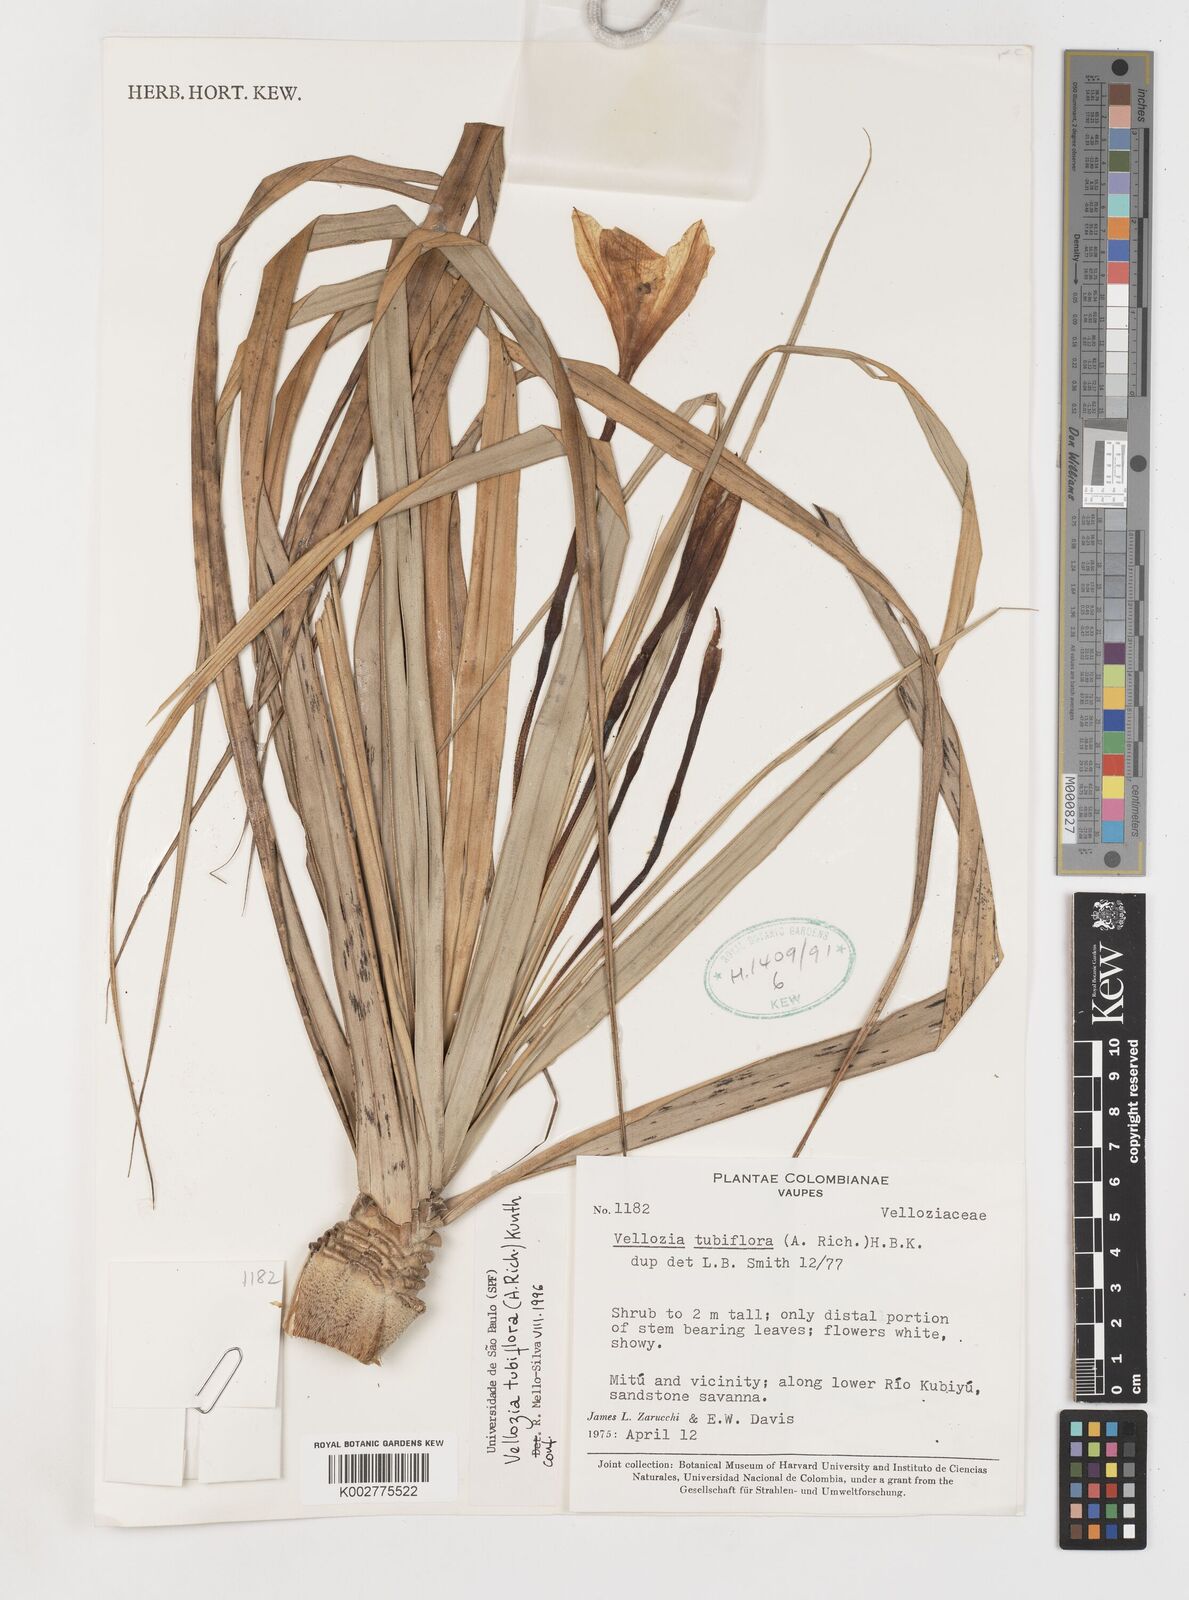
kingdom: Plantae
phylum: Tracheophyta
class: Liliopsida
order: Pandanales
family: Velloziaceae
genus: Vellozia
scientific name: Vellozia tubiflora
